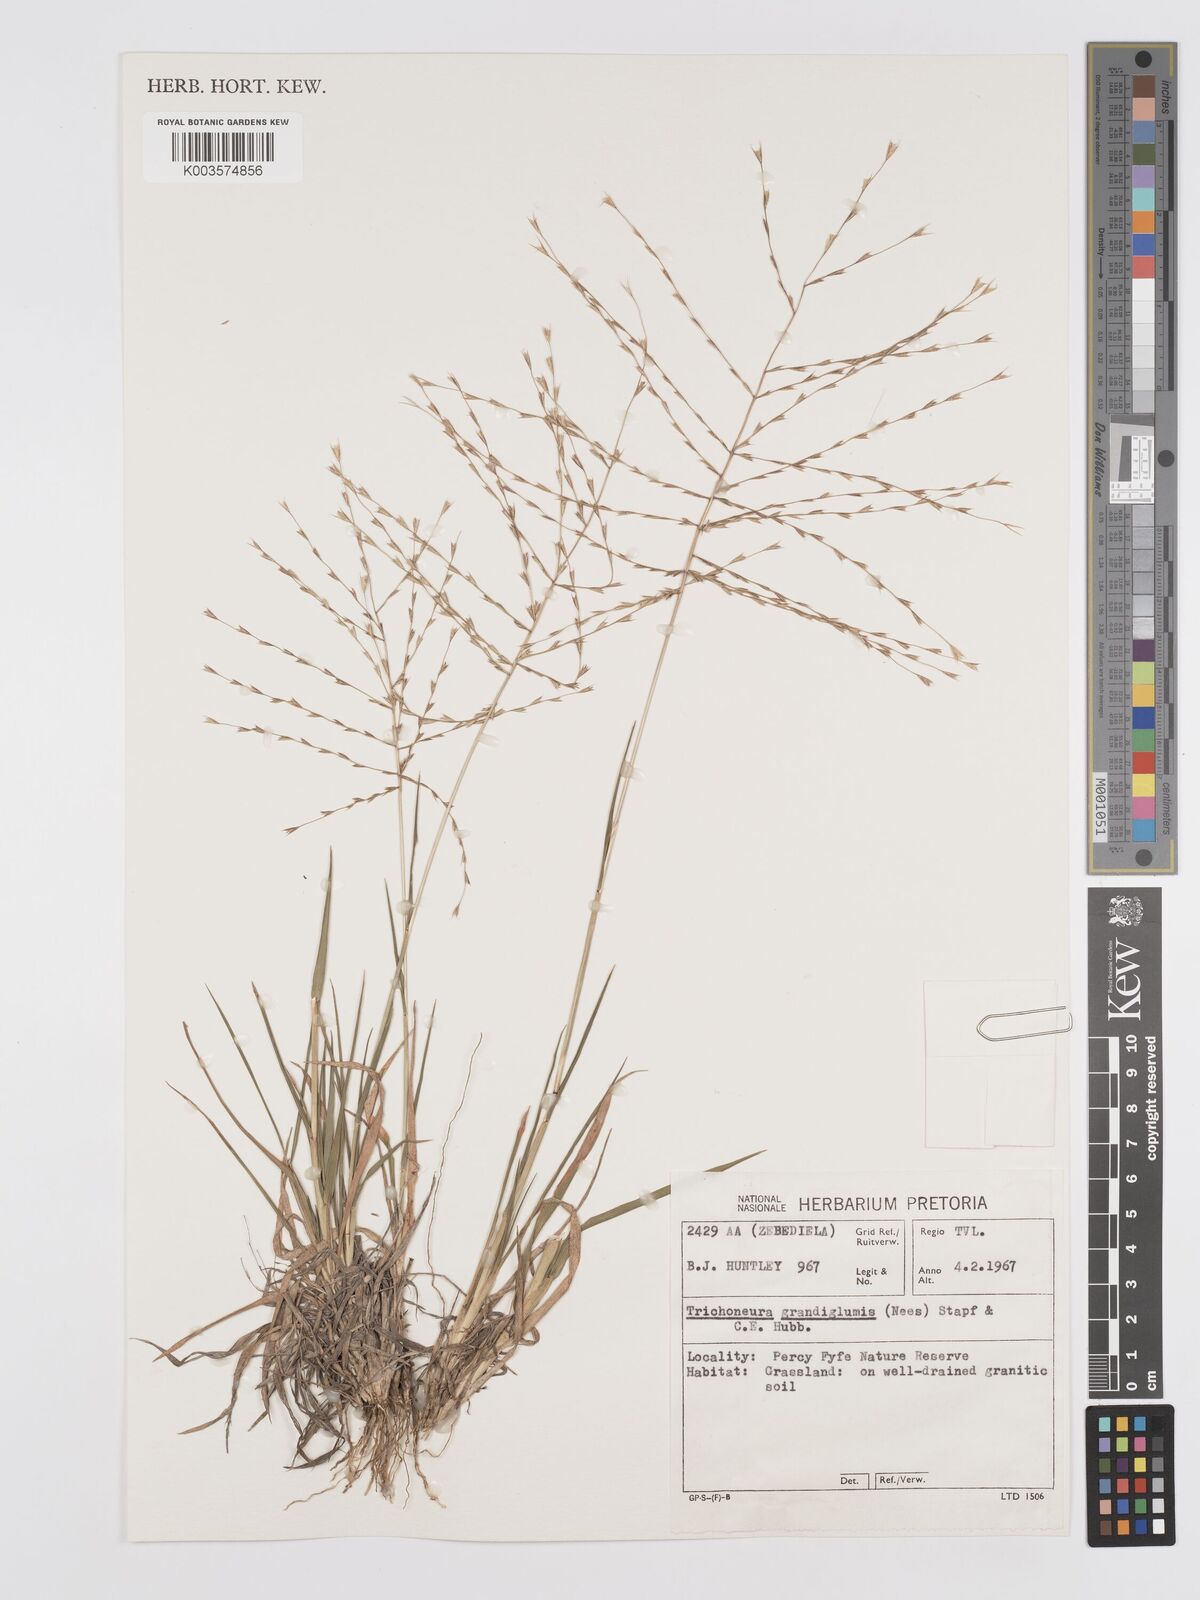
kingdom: Plantae
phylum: Tracheophyta
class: Liliopsida
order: Poales
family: Poaceae
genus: Trichoneura
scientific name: Trichoneura grandiglumis
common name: Rolling grass
